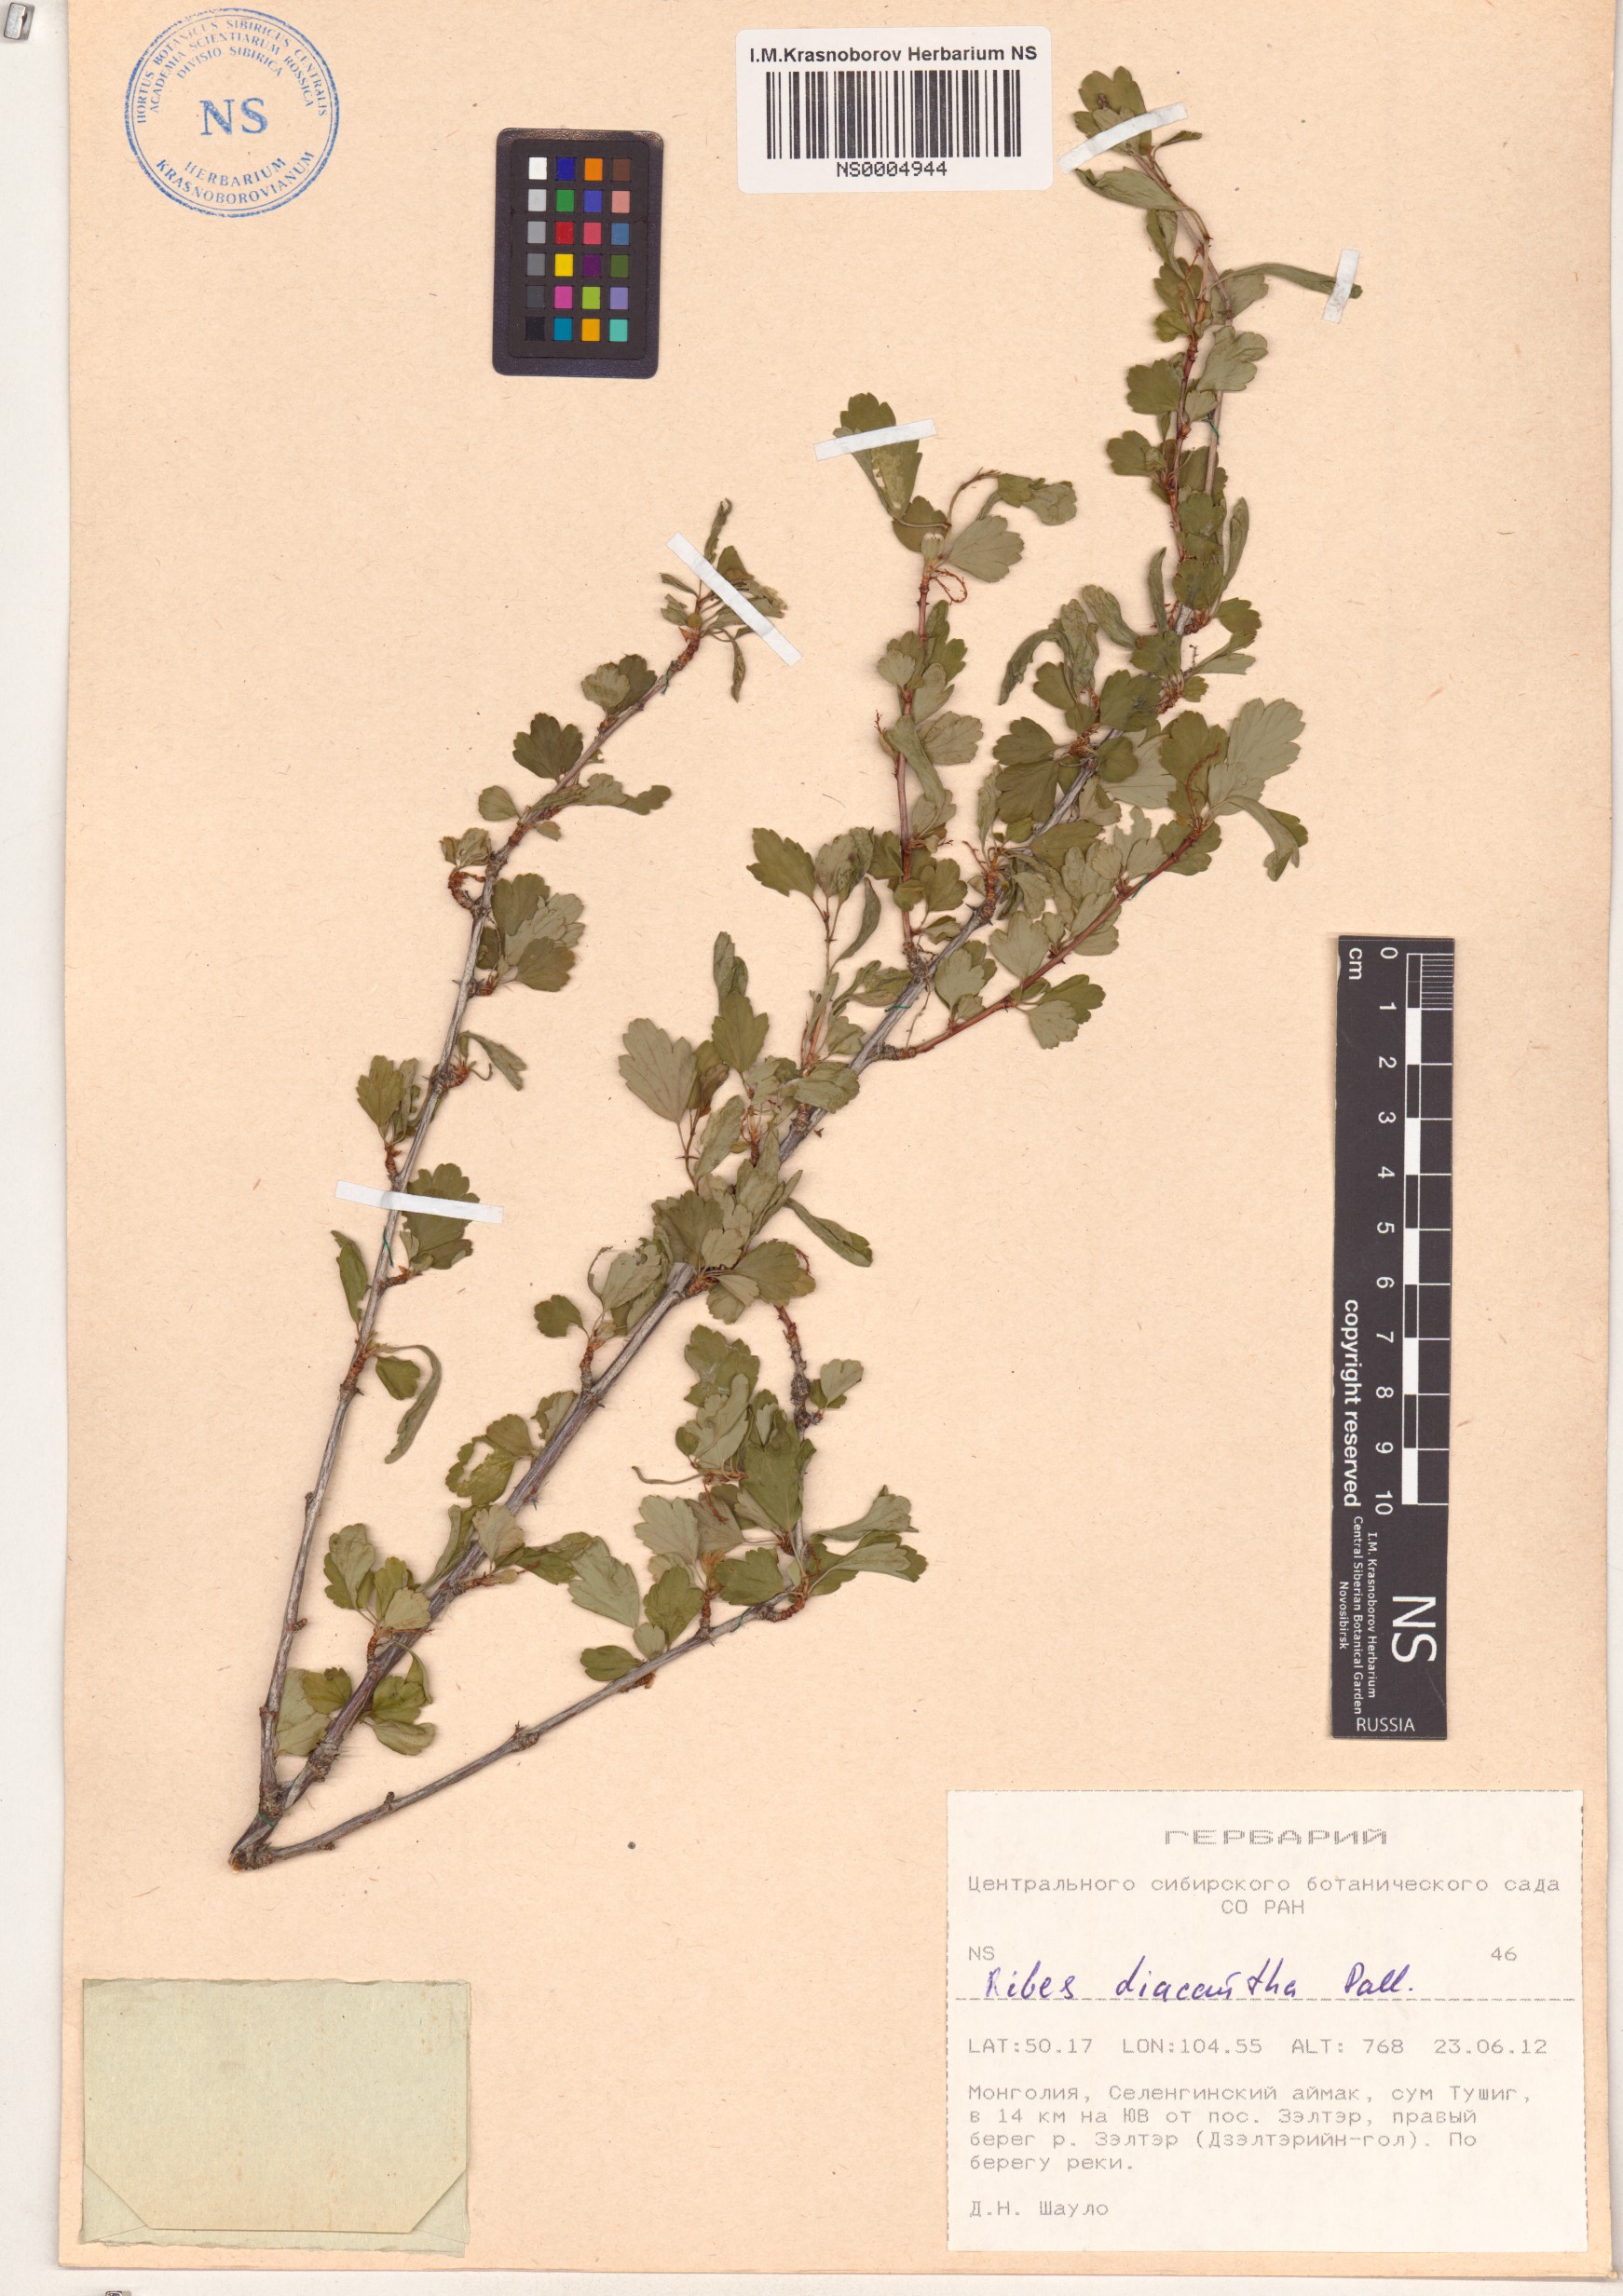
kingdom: Plantae
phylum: Tracheophyta
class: Magnoliopsida
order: Saxifragales
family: Grossulariaceae
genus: Ribes
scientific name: Ribes diacanthum
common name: Siberian currant
